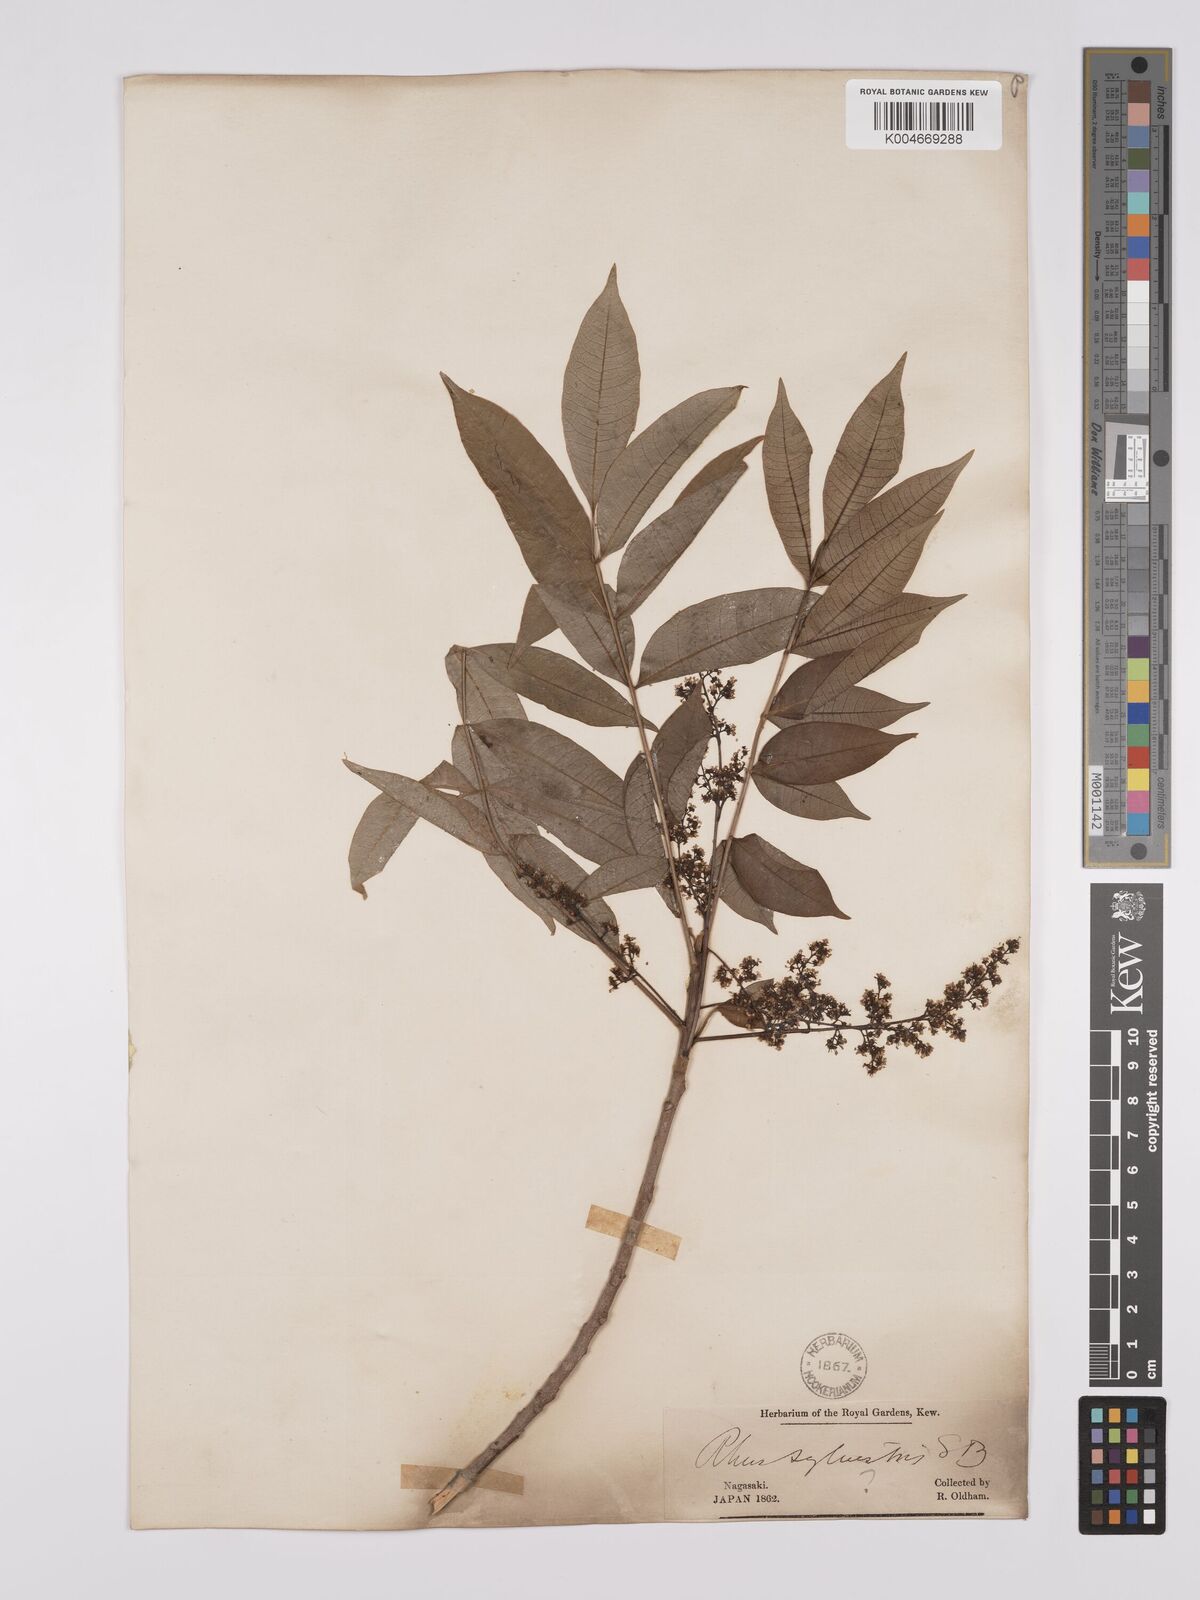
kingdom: Plantae
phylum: Tracheophyta
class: Magnoliopsida
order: Sapindales
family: Anacardiaceae
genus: Toxicodendron
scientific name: Toxicodendron succedaneum
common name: Wax tree
